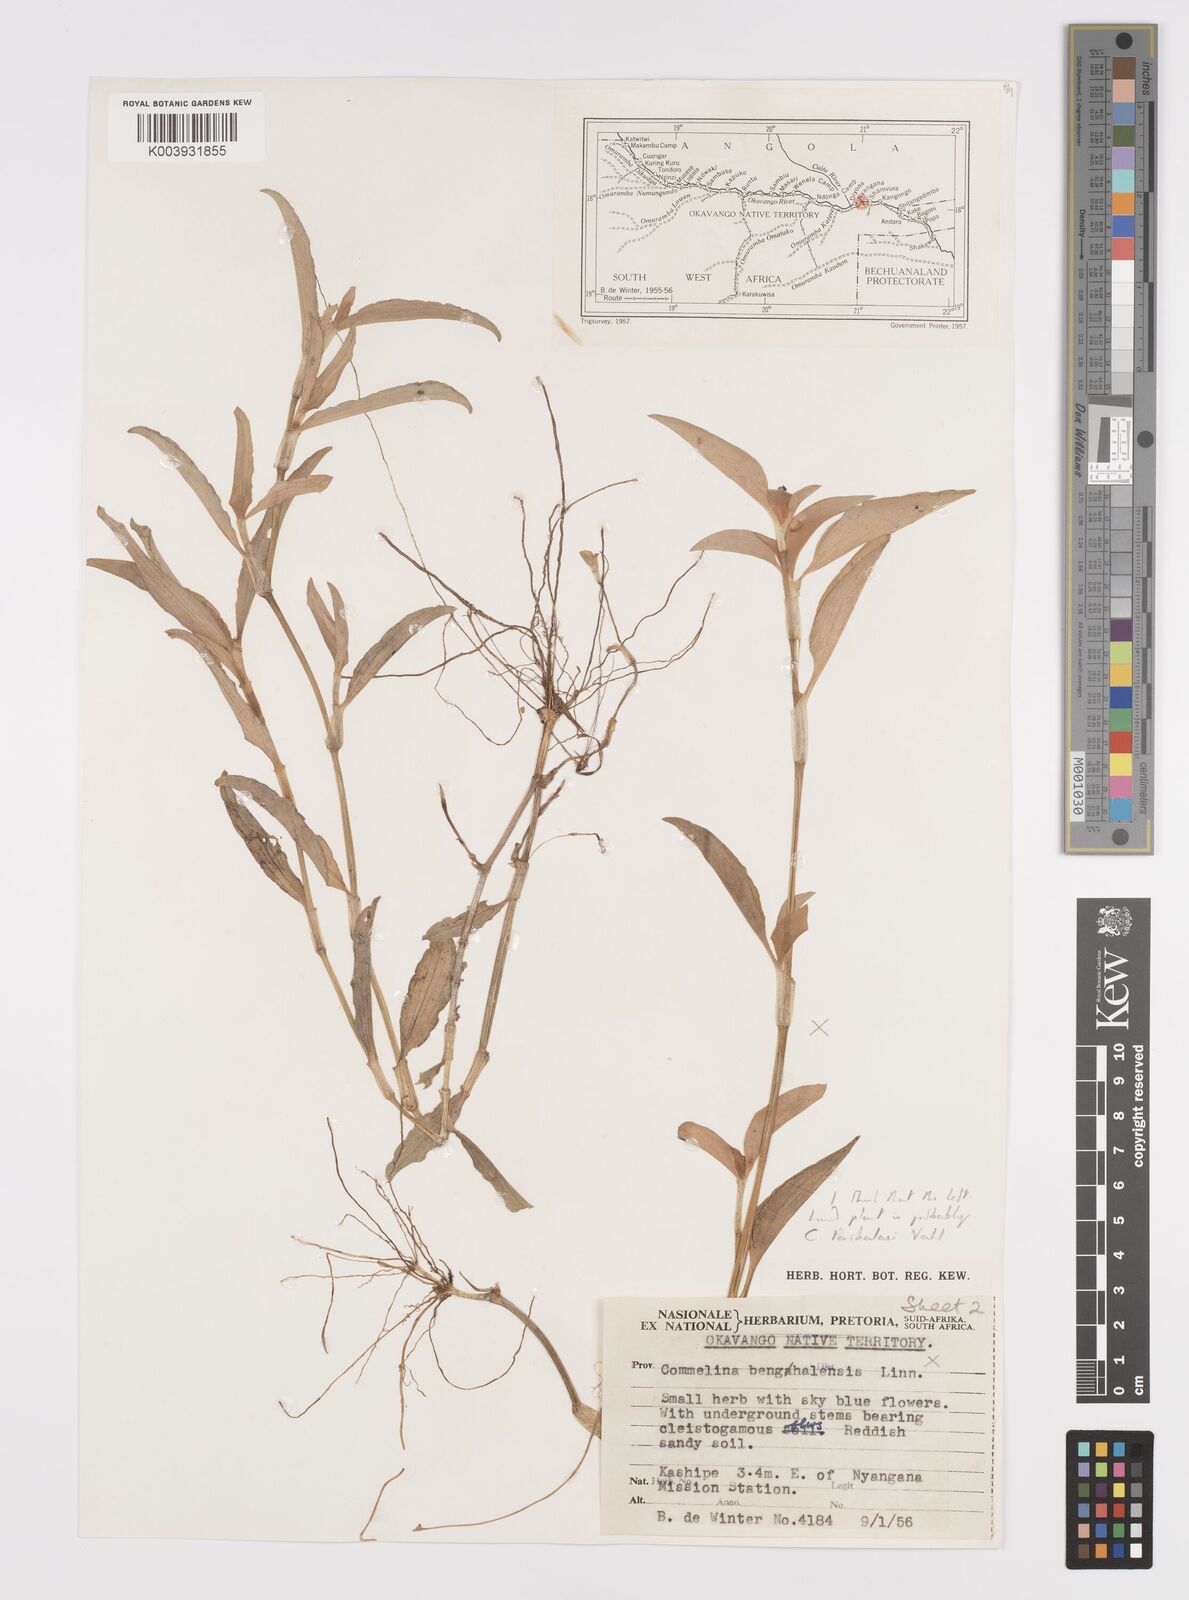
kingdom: Plantae
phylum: Tracheophyta
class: Liliopsida
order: Commelinales
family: Commelinaceae
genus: Commelina
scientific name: Commelina forskaolii
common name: Rat's ear
